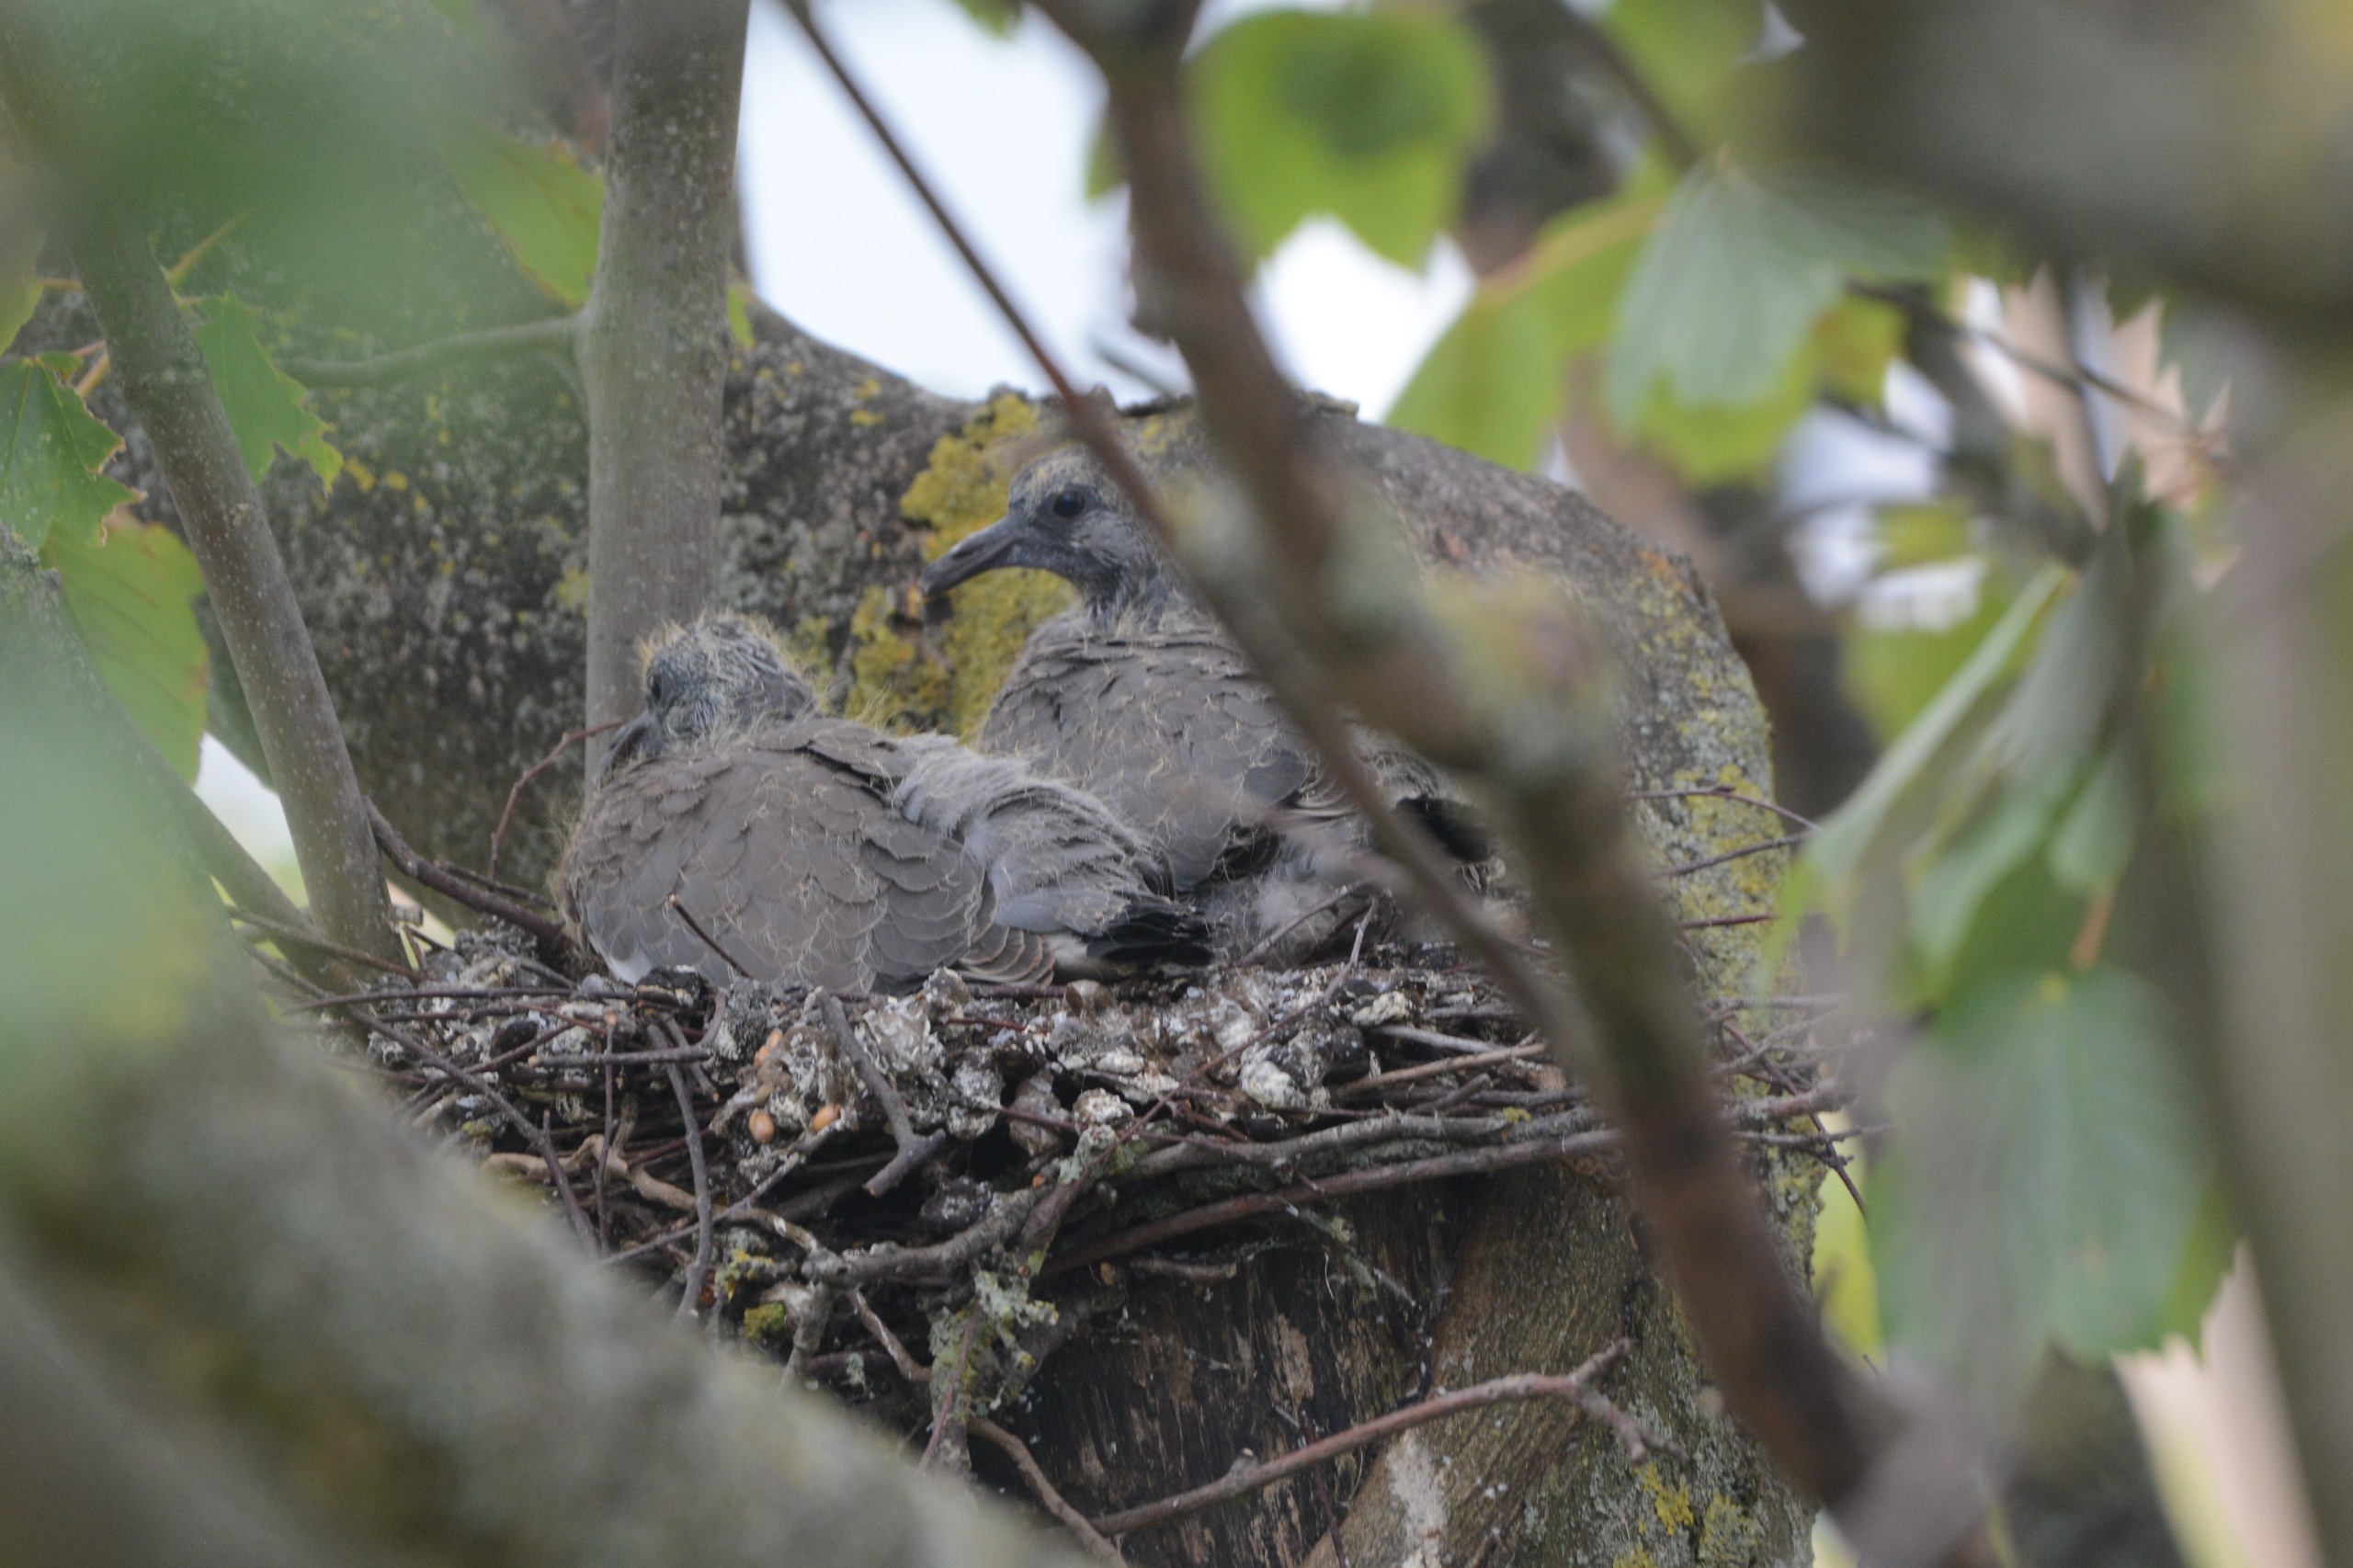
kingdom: Animalia
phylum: Chordata
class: Aves
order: Columbiformes
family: Columbidae
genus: Columba
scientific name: Columba palumbus
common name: Ringdue
